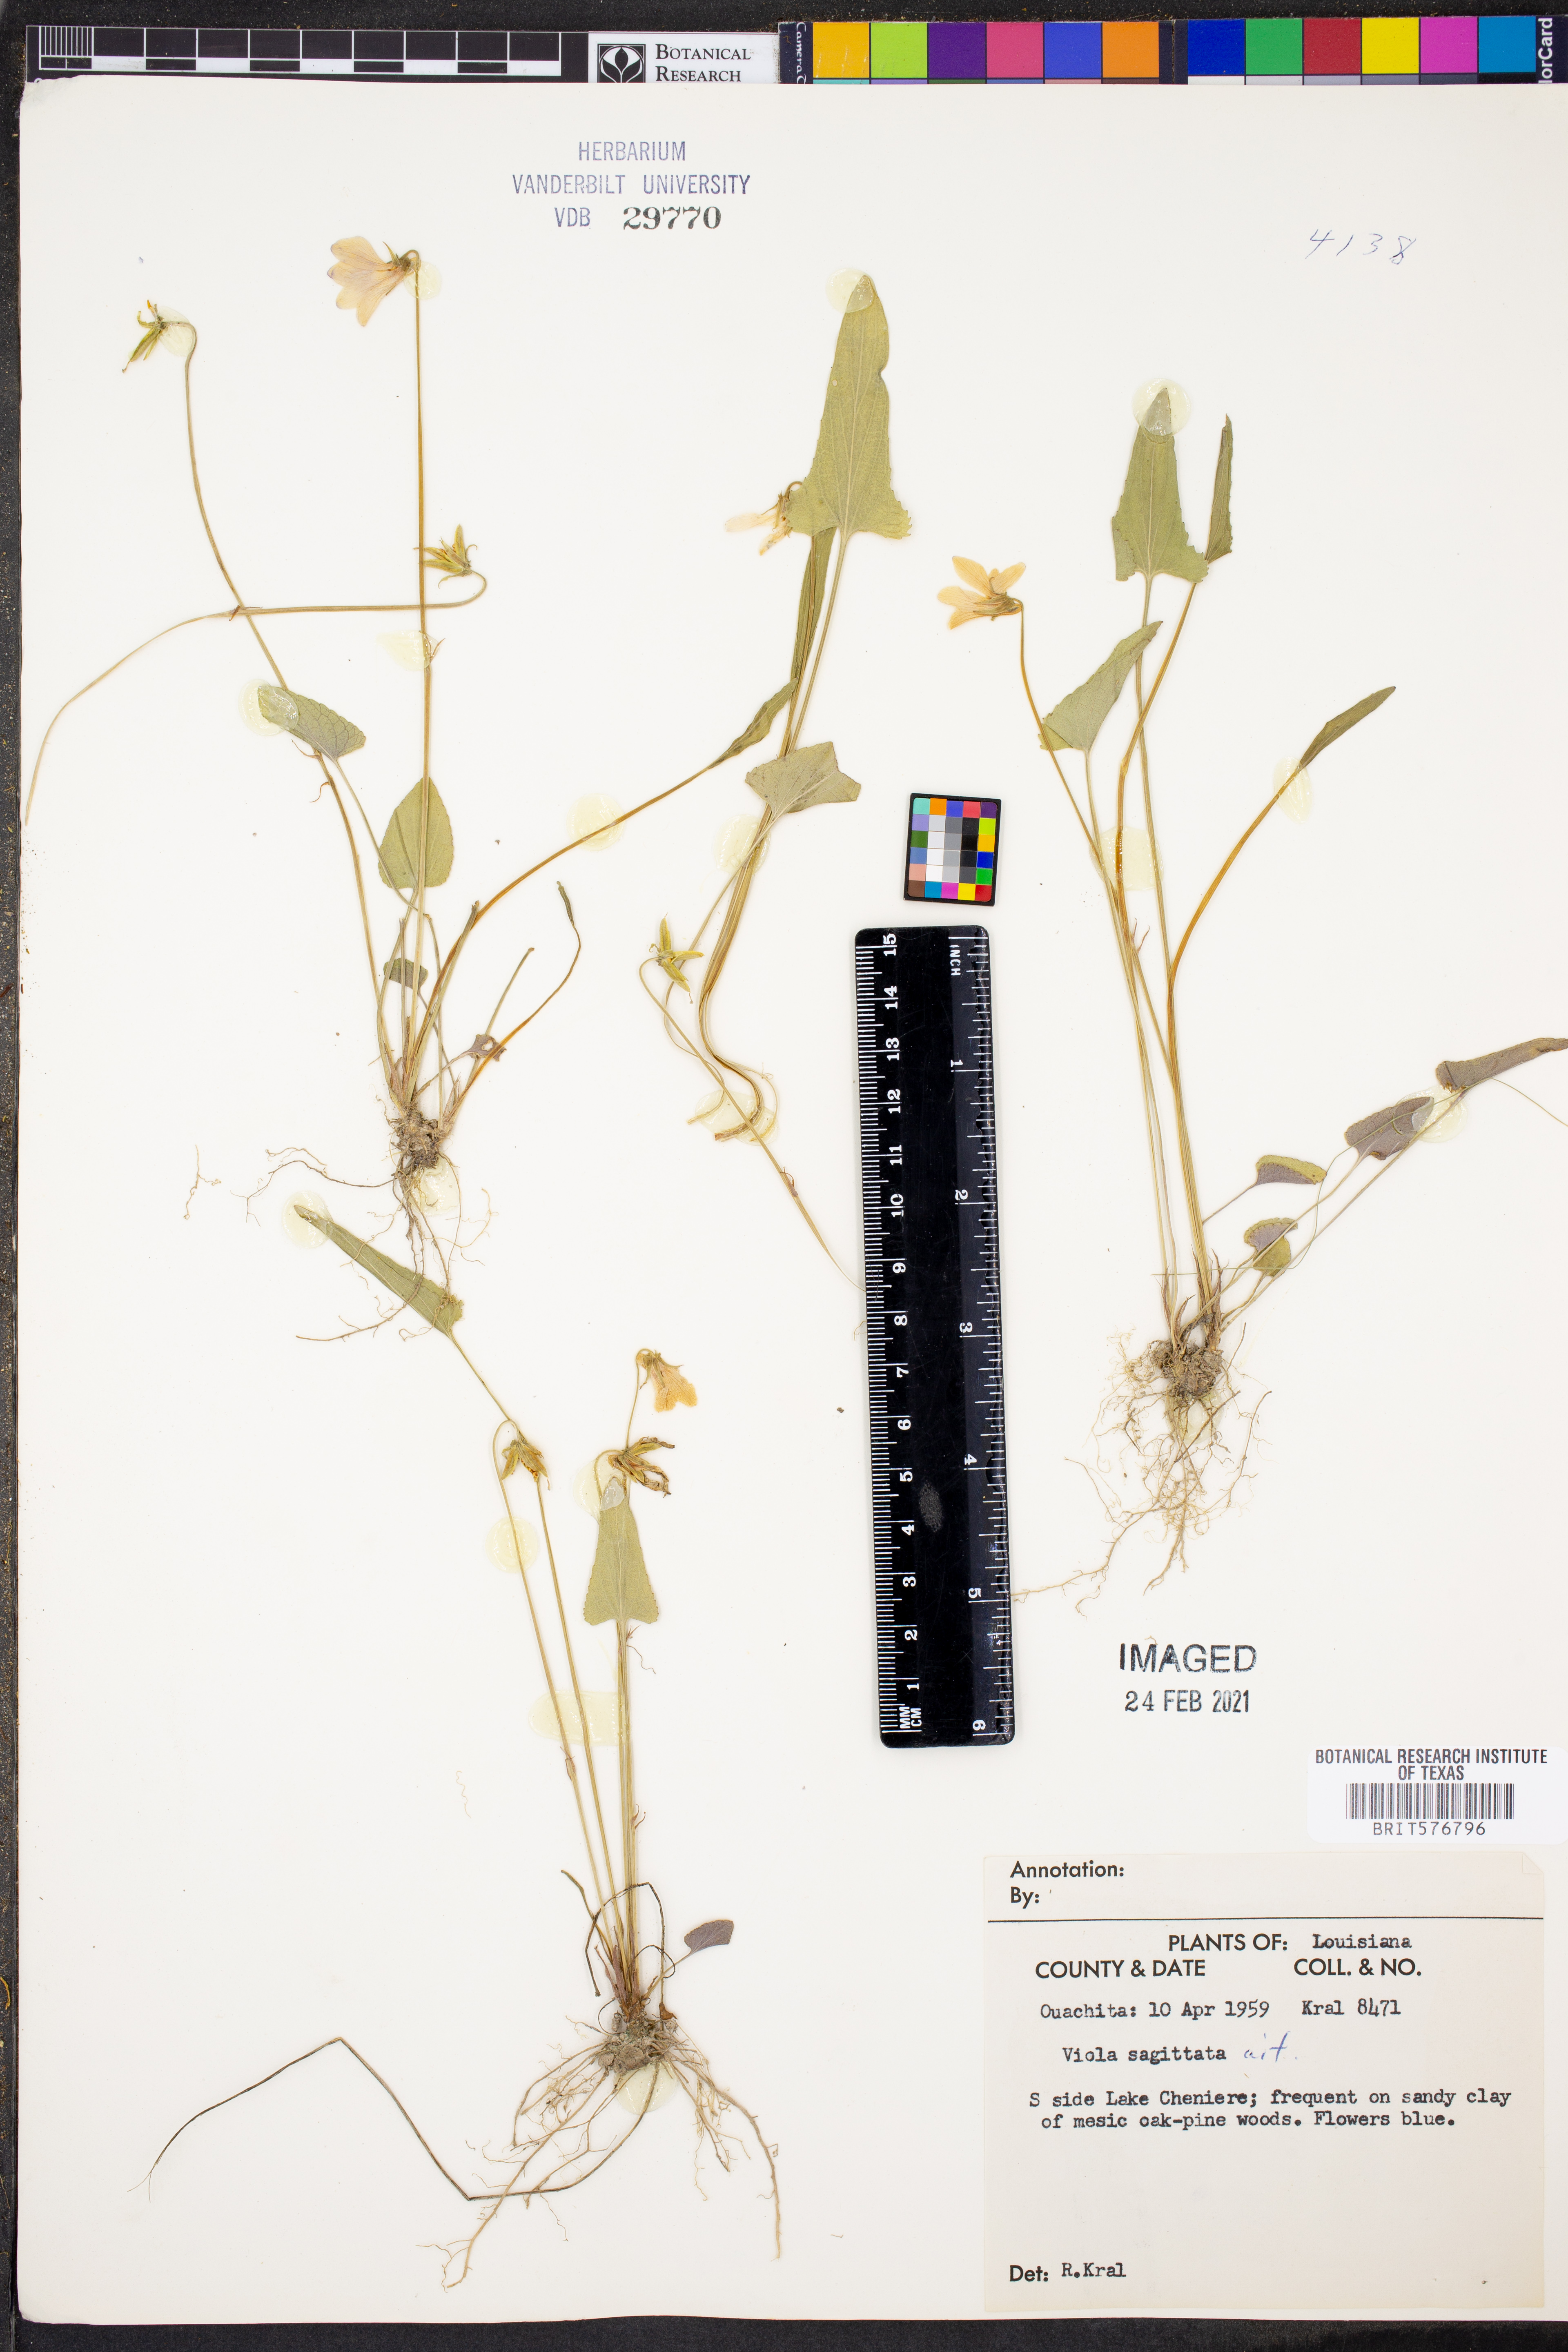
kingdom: Plantae
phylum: Tracheophyta
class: Magnoliopsida
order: Malpighiales
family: Violaceae
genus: Viola
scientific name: Viola sagittata
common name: Arrowhead violet
